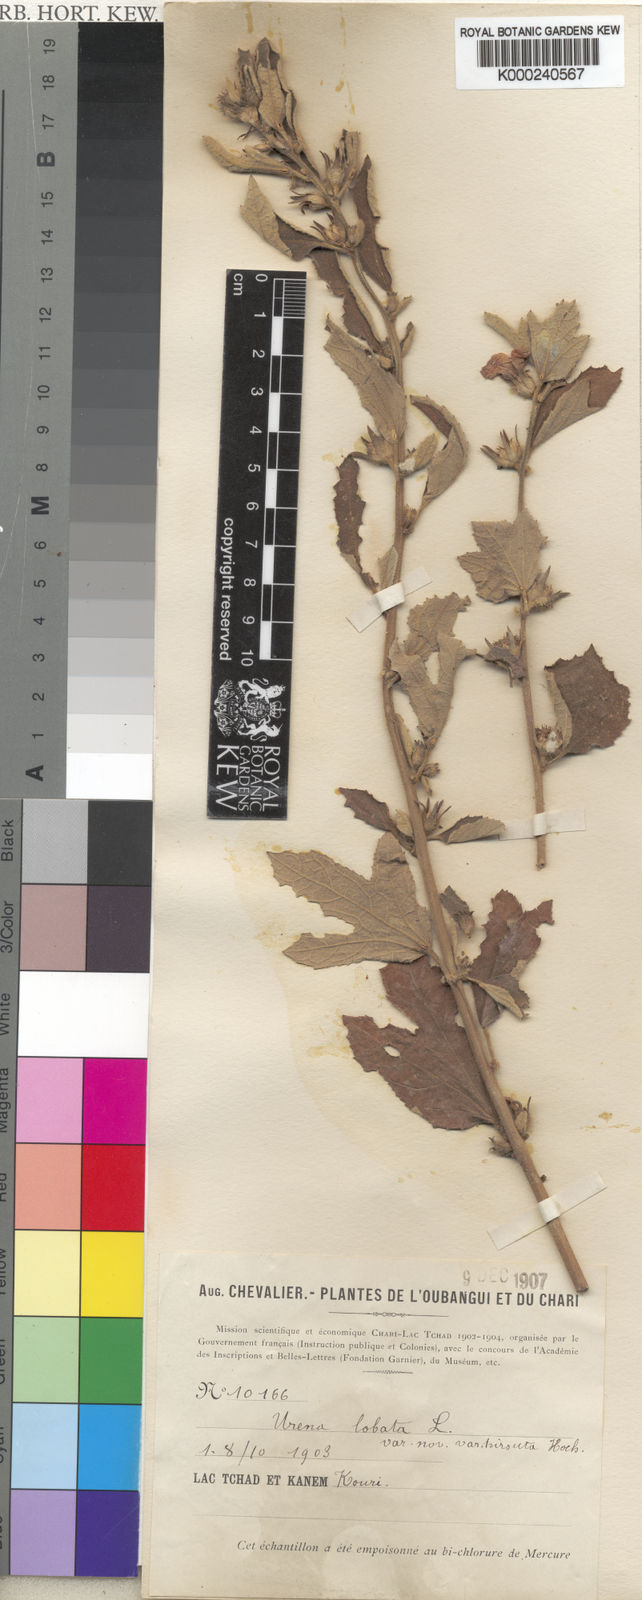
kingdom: Plantae
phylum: Tracheophyta
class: Magnoliopsida
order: Malvales
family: Malvaceae
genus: Urena
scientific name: Urena lobata
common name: Caesarweed
